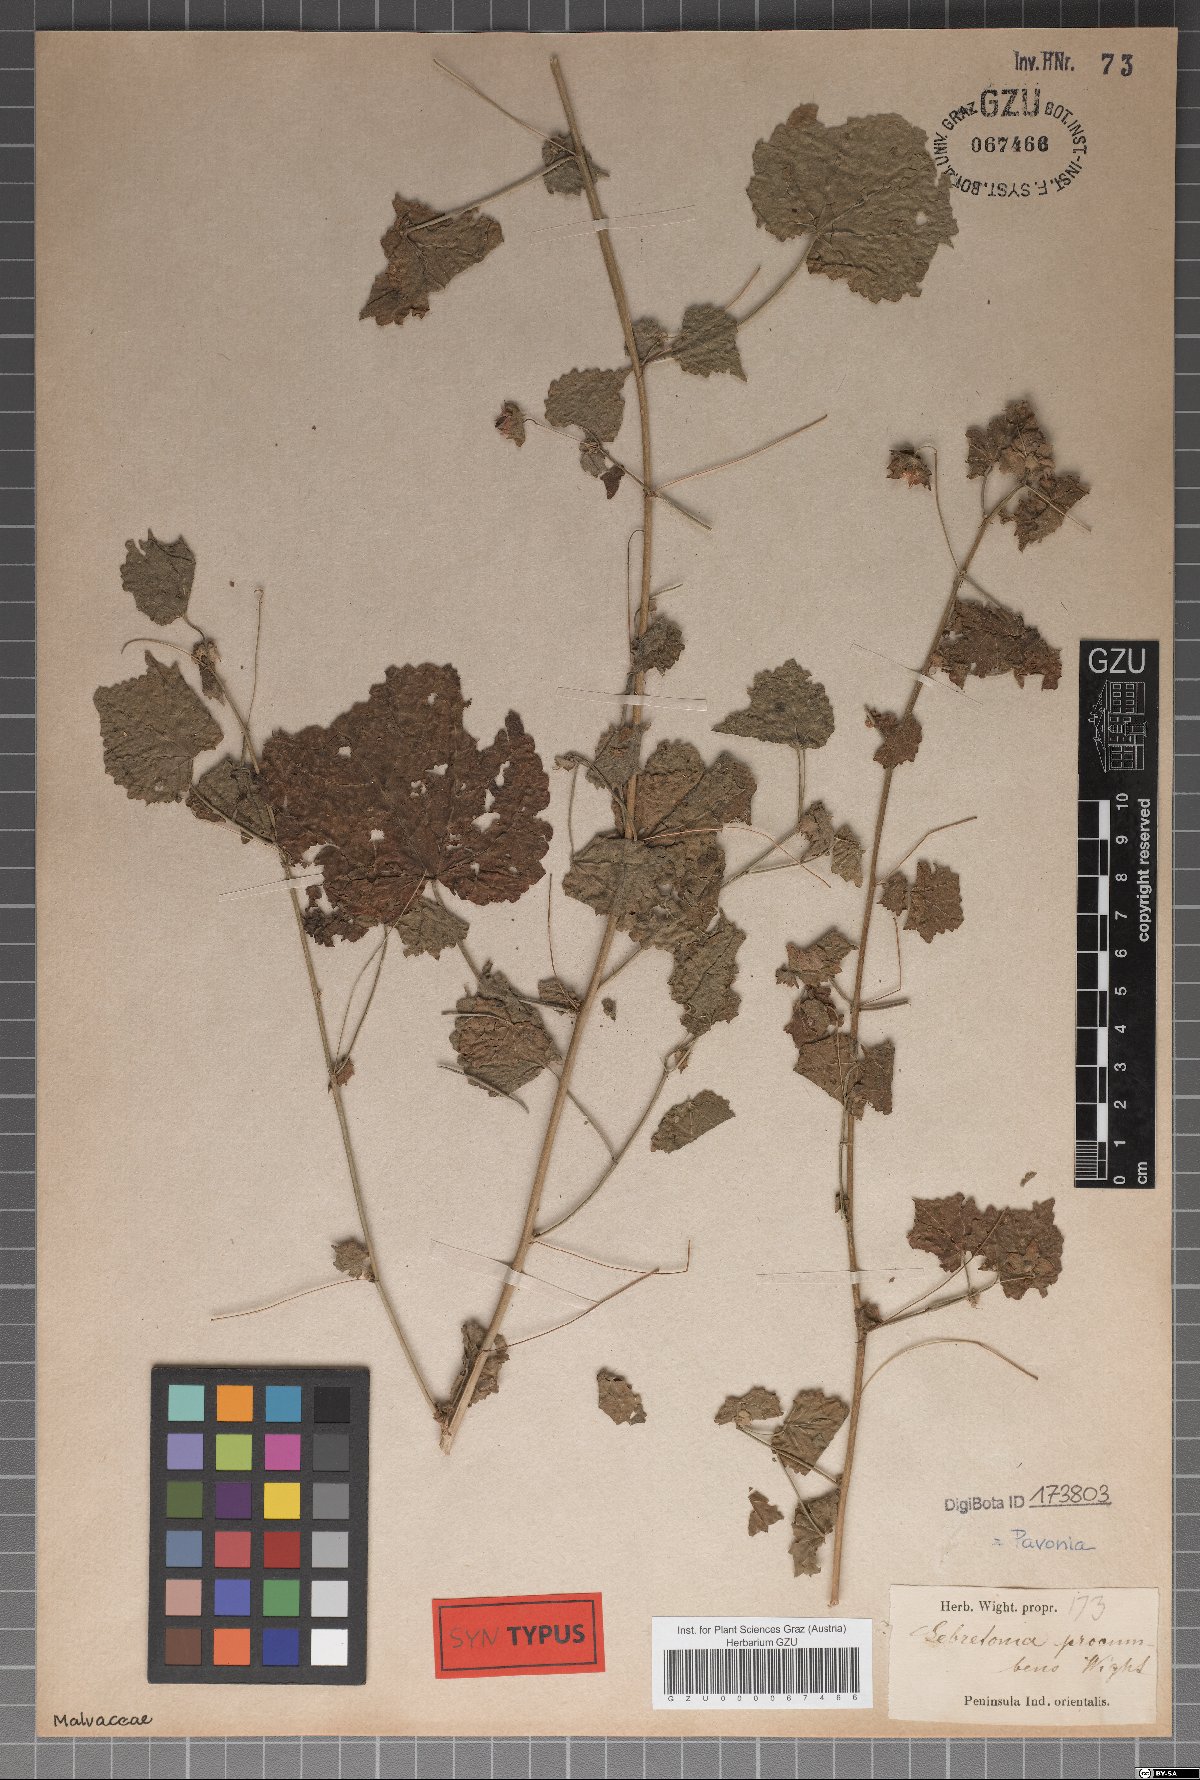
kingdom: Plantae
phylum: Tracheophyta
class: Magnoliopsida
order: Malvales
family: Malvaceae
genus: Pavonia
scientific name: Pavonia procumbens
